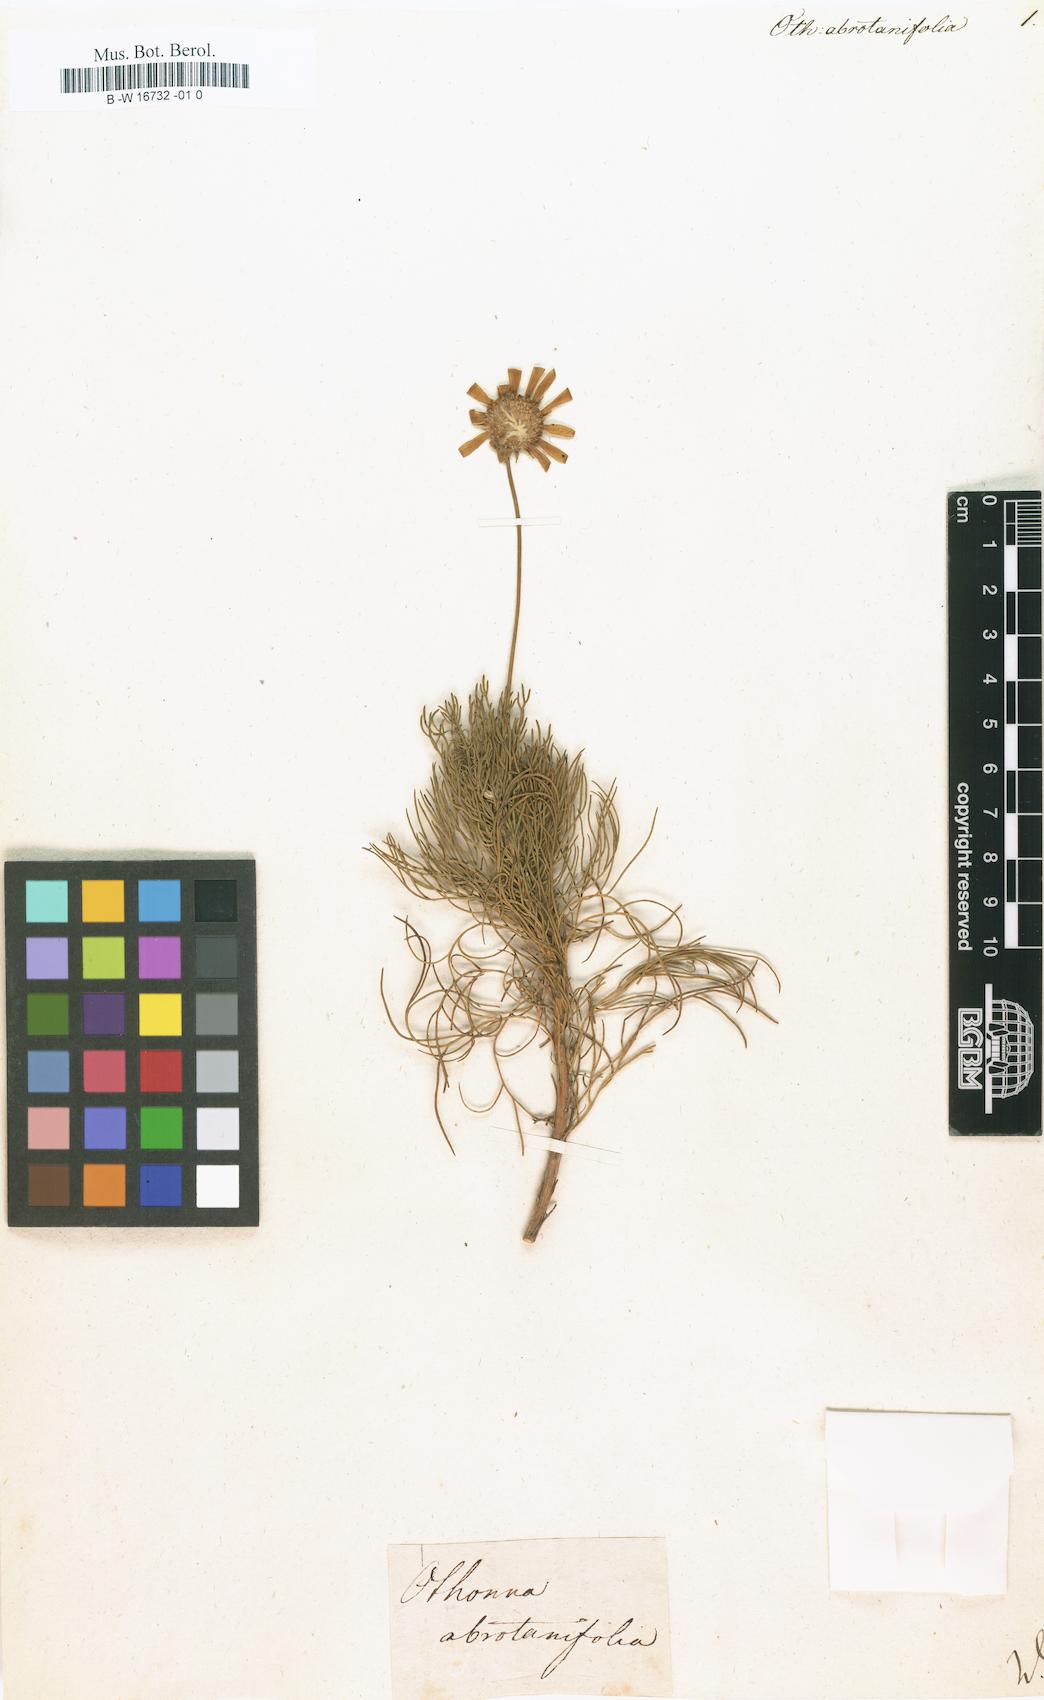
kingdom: Plantae
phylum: Tracheophyta
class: Magnoliopsida
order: Asterales
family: Asteraceae
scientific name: Asteraceae
